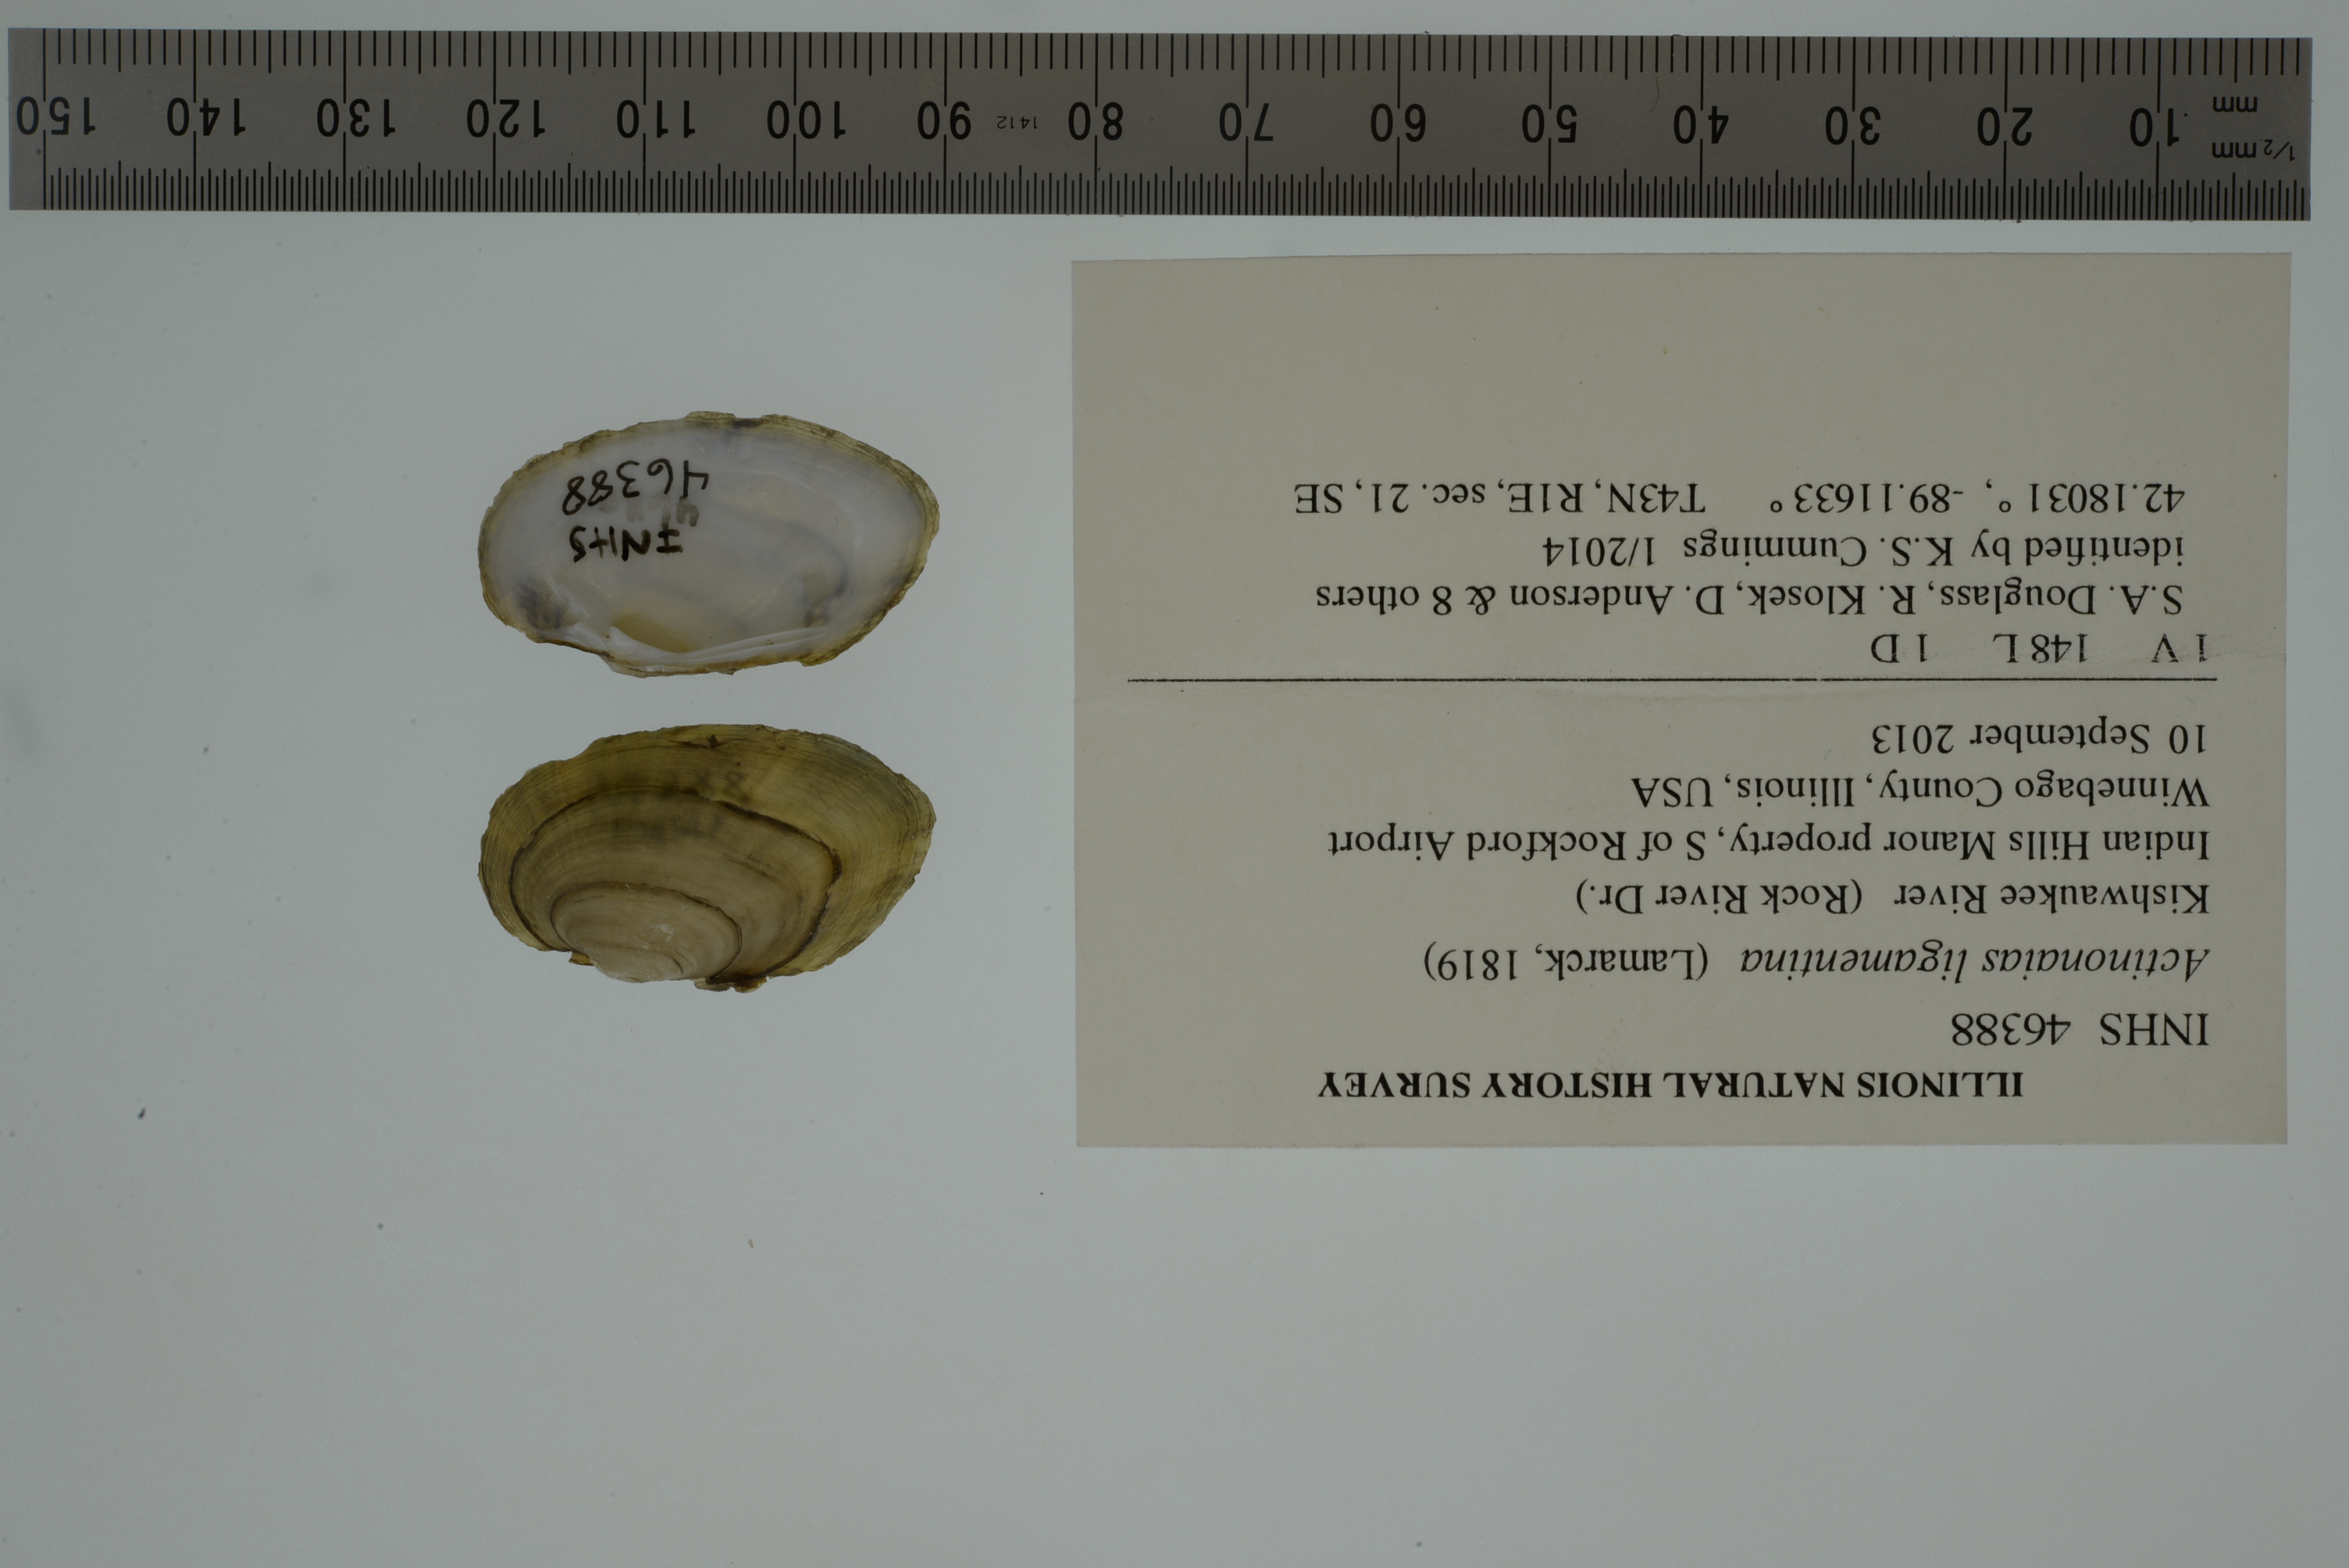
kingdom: Animalia
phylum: Mollusca
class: Bivalvia
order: Unionida
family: Unionidae
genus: Ortmanniana
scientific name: Ortmanniana ligamentina
